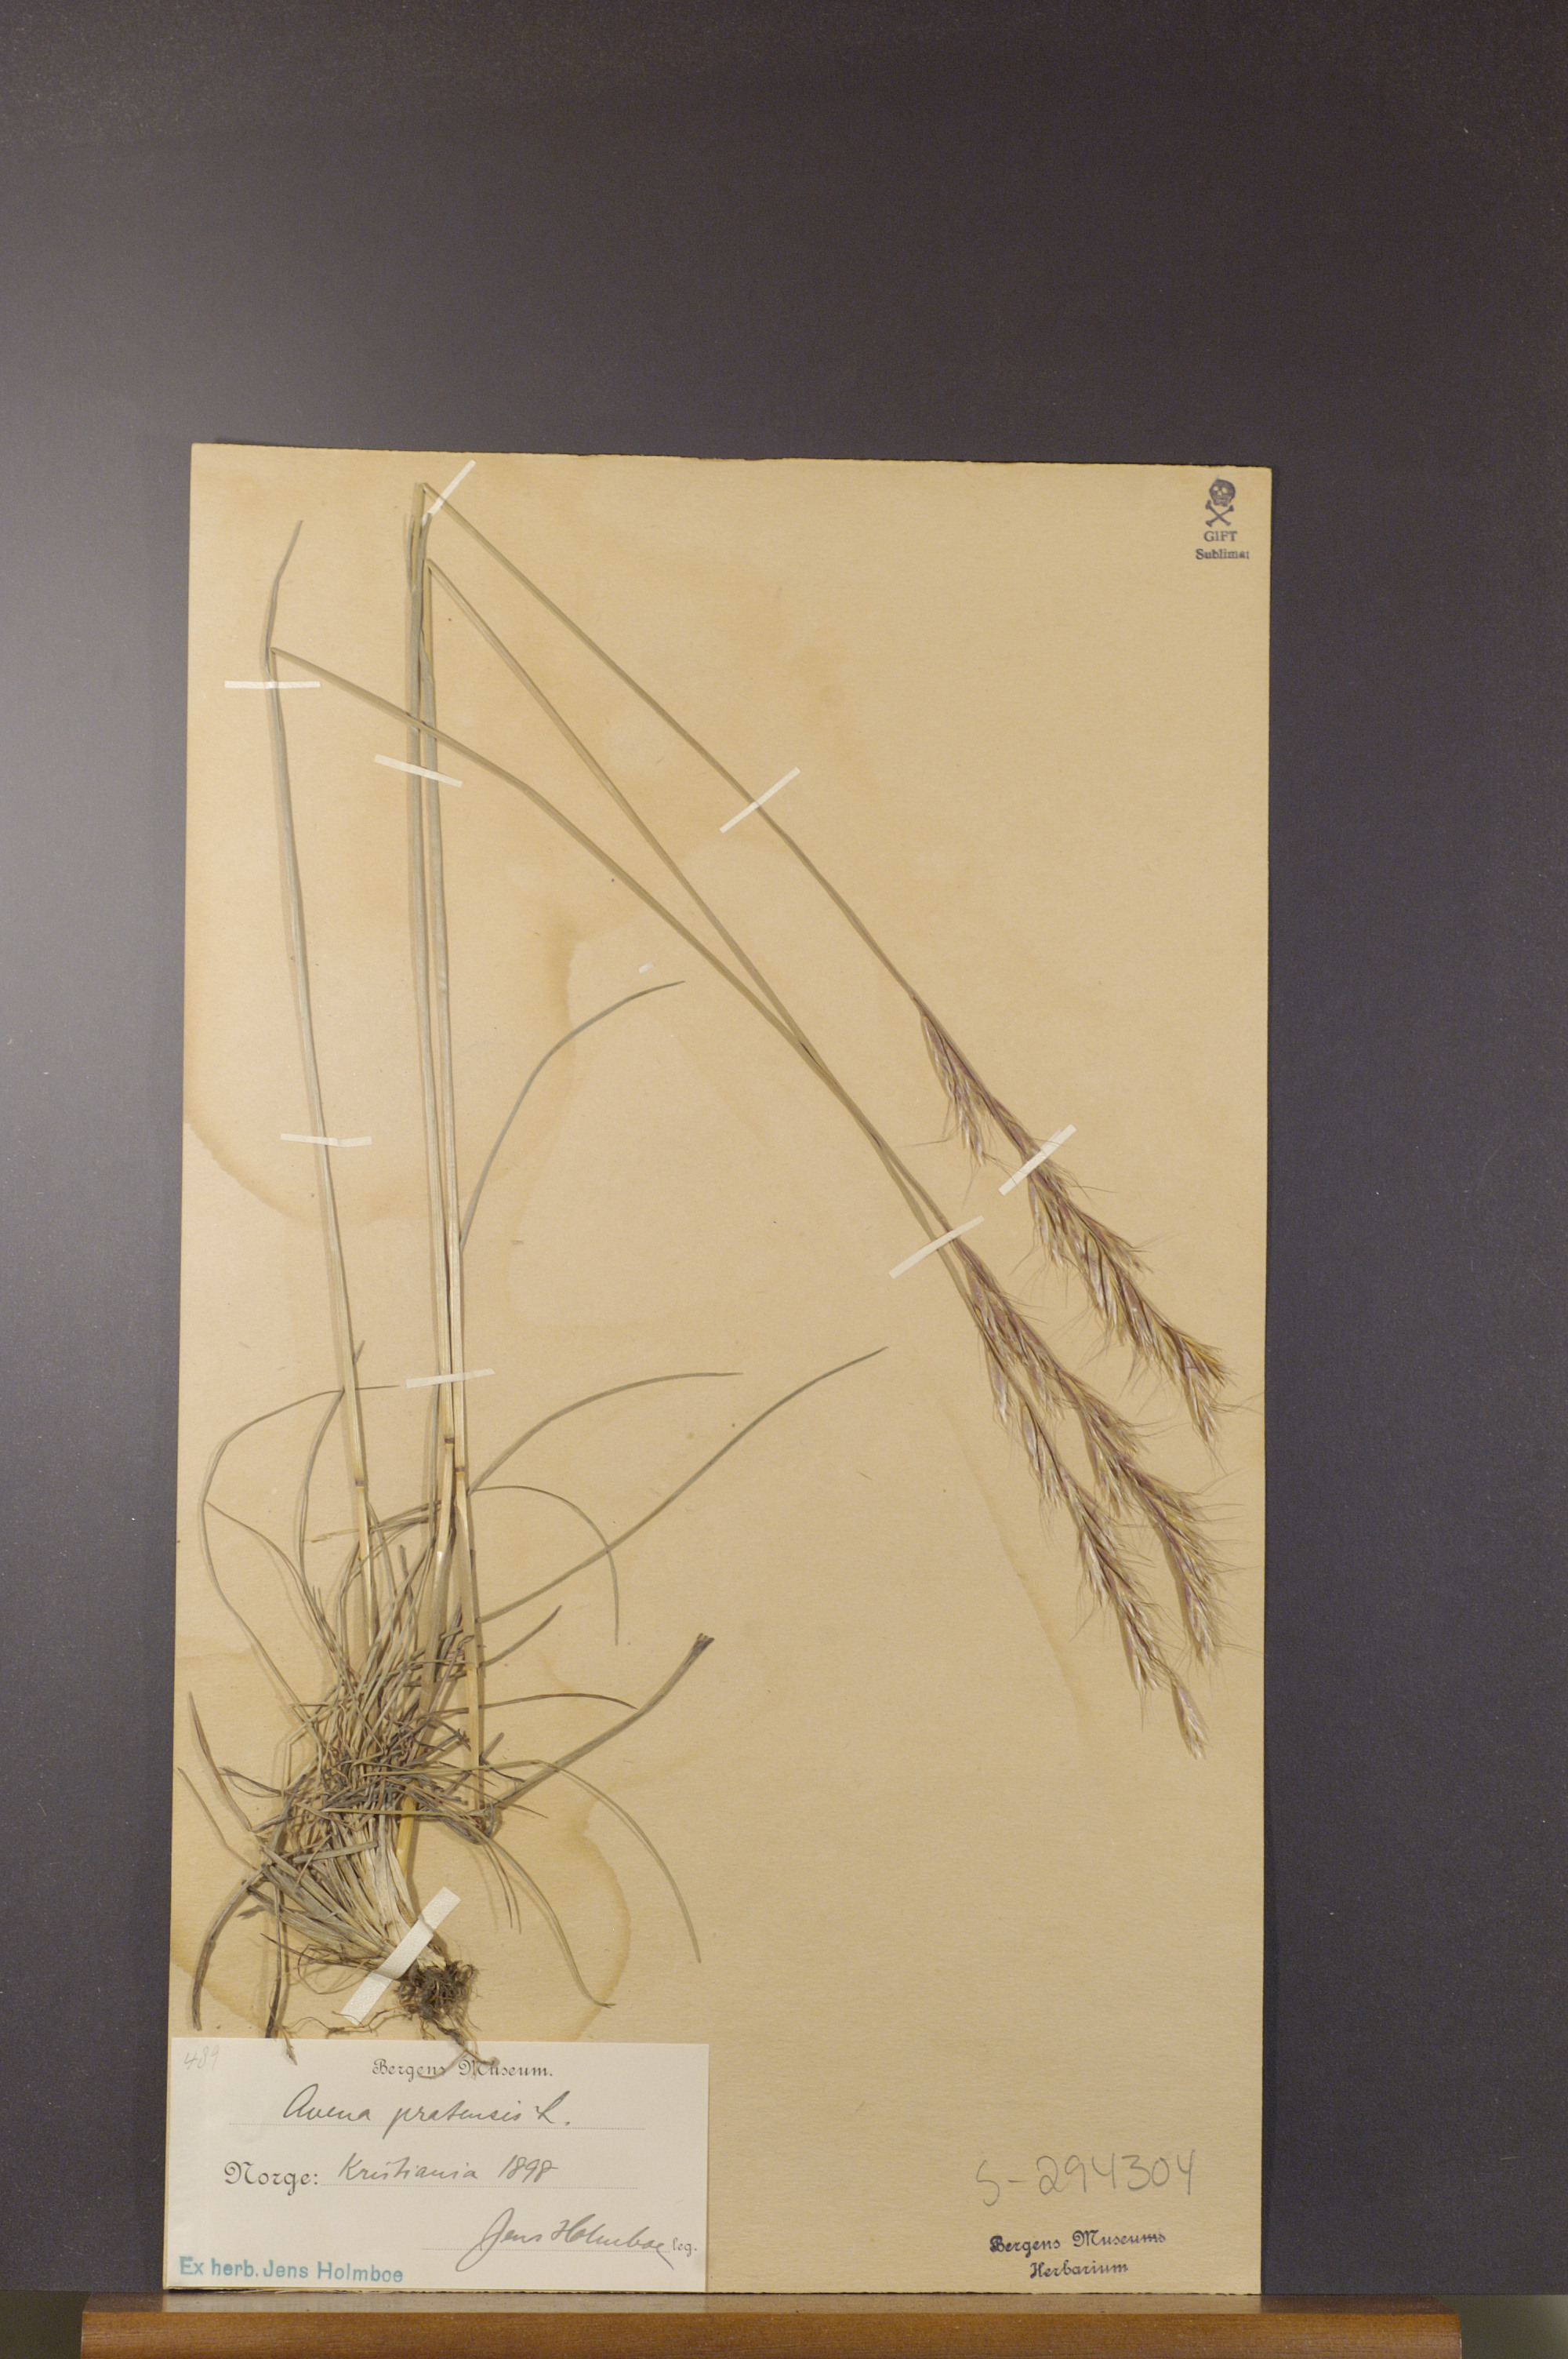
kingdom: Plantae
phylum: Tracheophyta
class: Liliopsida
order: Poales
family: Poaceae
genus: Helictochloa
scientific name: Helictochloa pratensis
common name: Meadow oat grass
